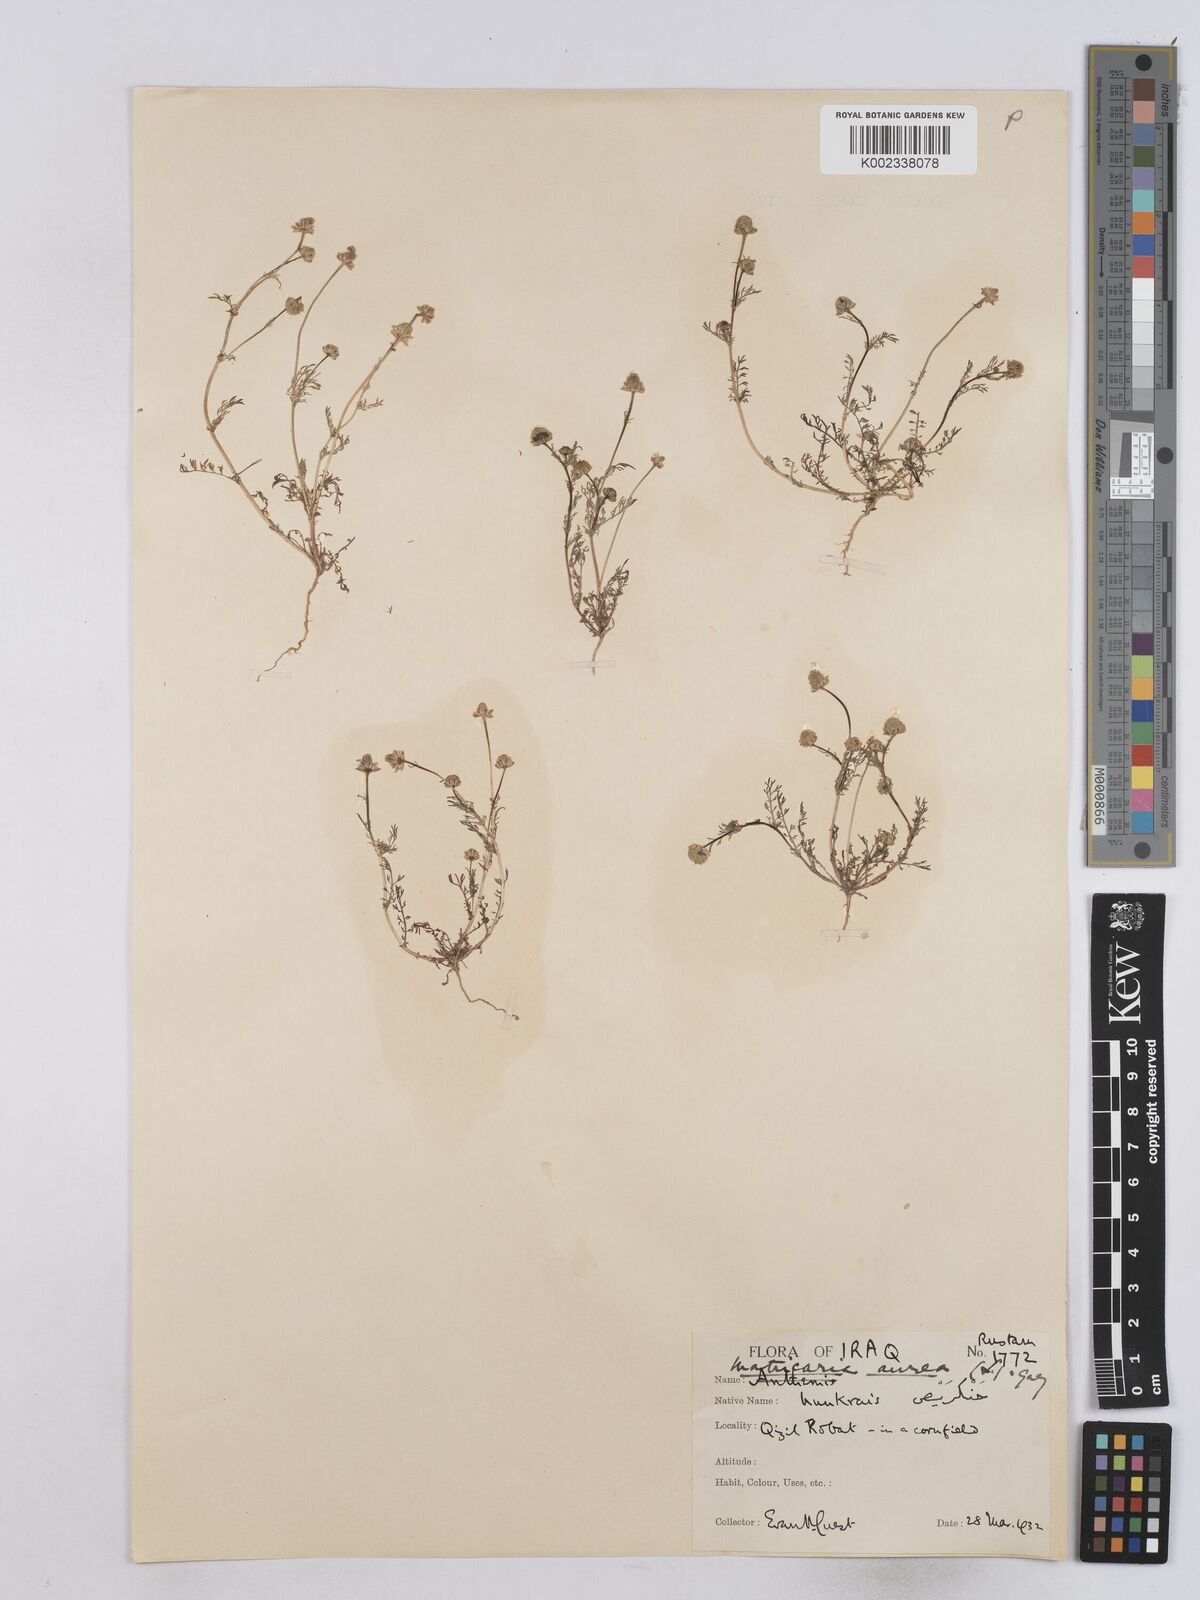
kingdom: Plantae
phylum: Tracheophyta
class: Magnoliopsida
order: Asterales
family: Asteraceae
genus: Matricaria
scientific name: Matricaria aurea
